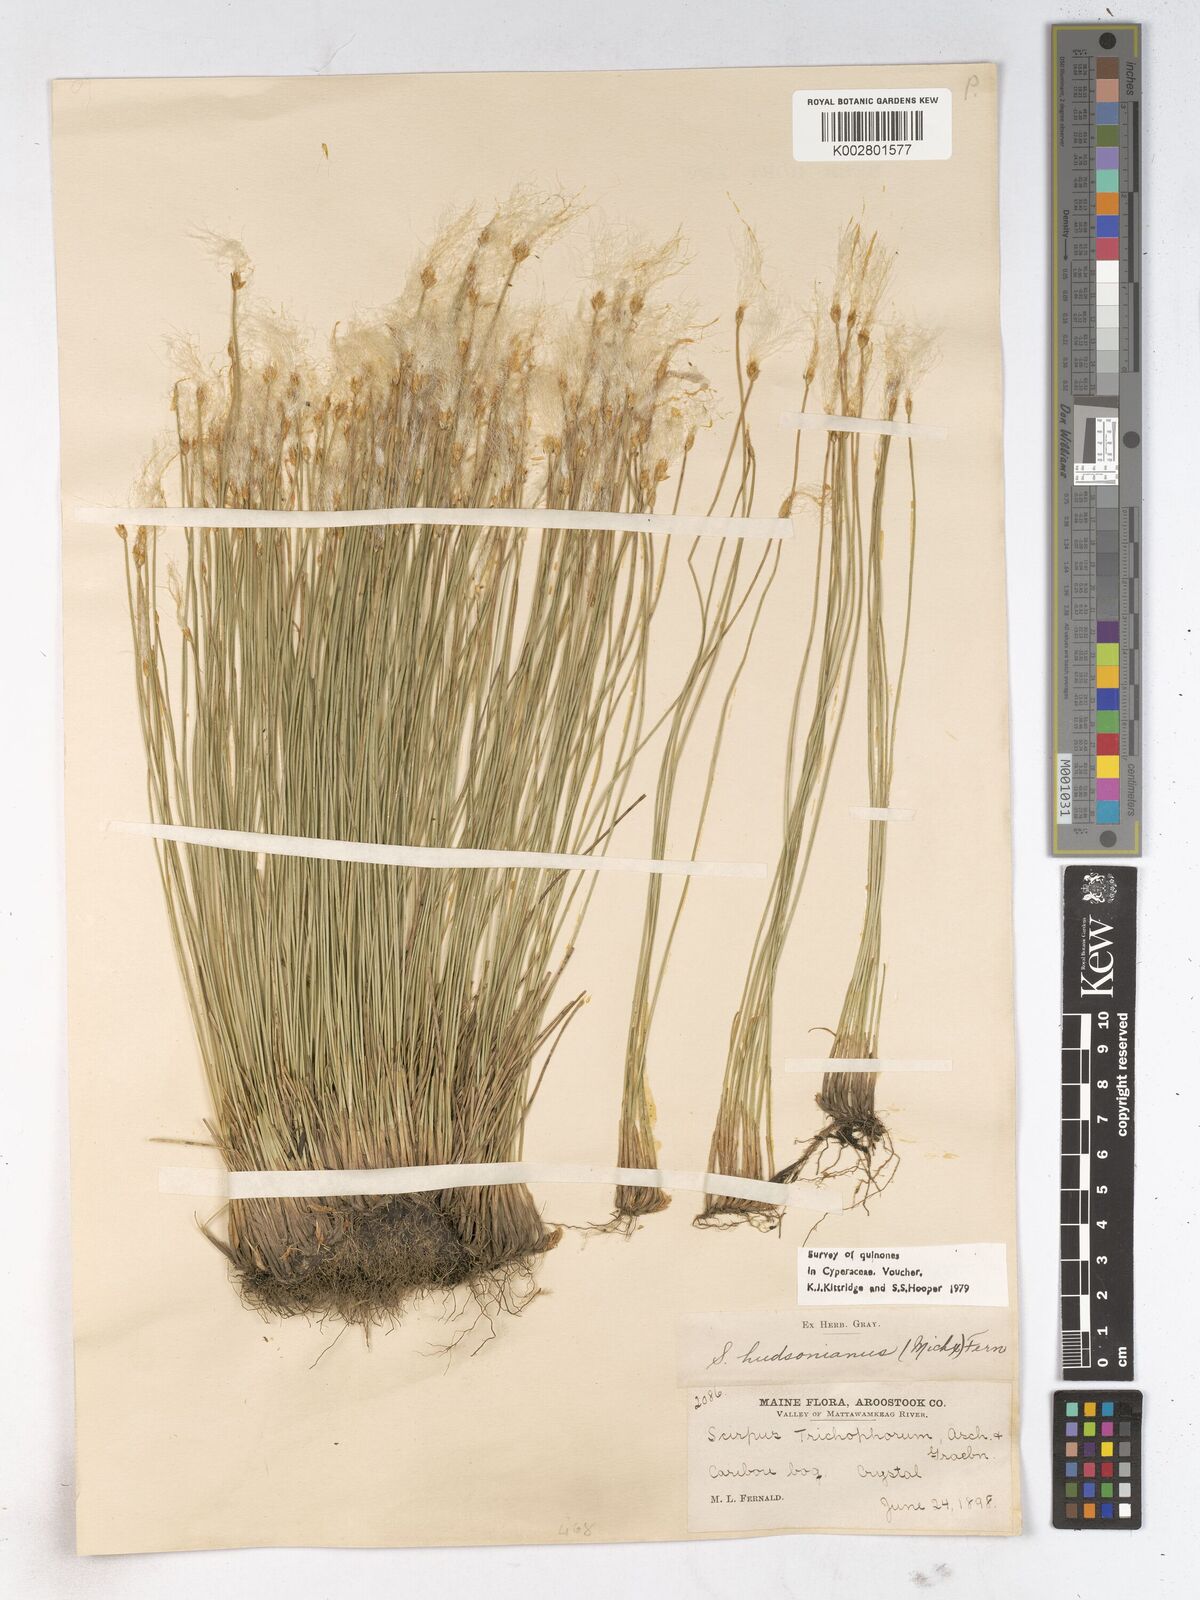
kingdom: Plantae
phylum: Tracheophyta
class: Liliopsida
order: Poales
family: Cyperaceae
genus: Trichophorum
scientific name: Trichophorum alpinum
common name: Alpine bulrush
